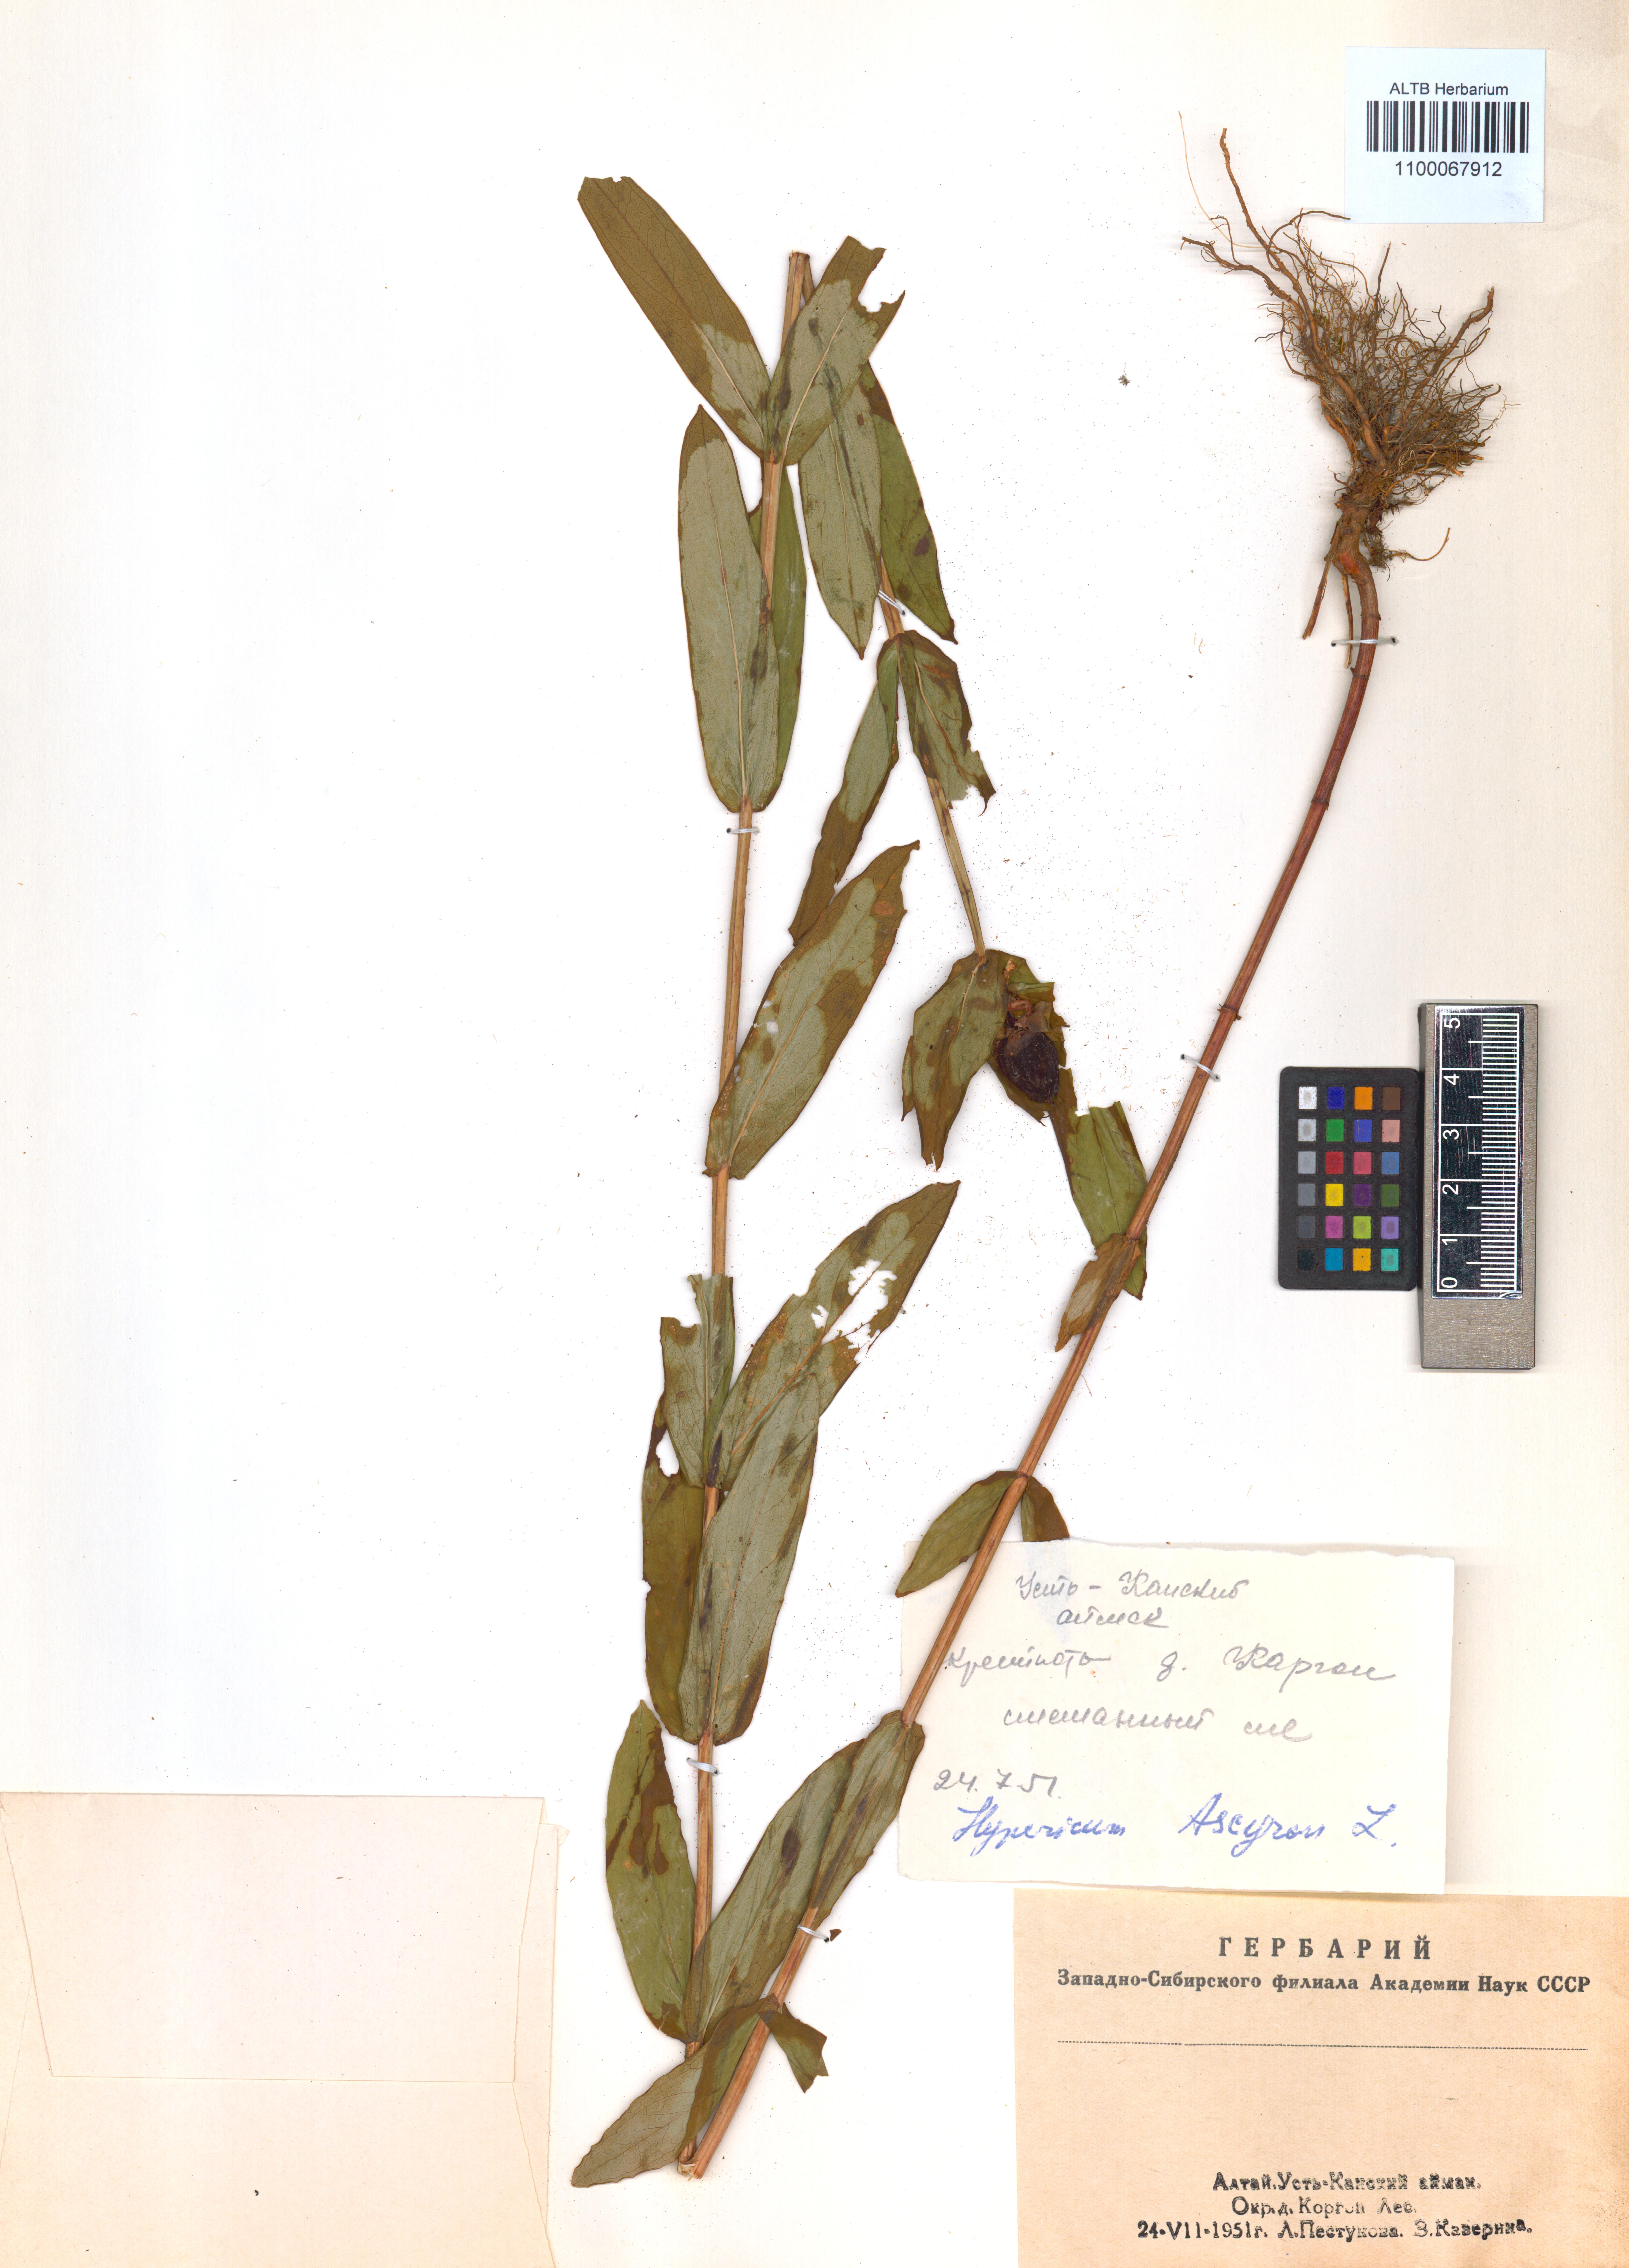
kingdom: Plantae
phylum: Tracheophyta
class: Magnoliopsida
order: Malpighiales
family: Hypericaceae
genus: Hypericum
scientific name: Hypericum ascyron
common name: Giant st. john's-wort
